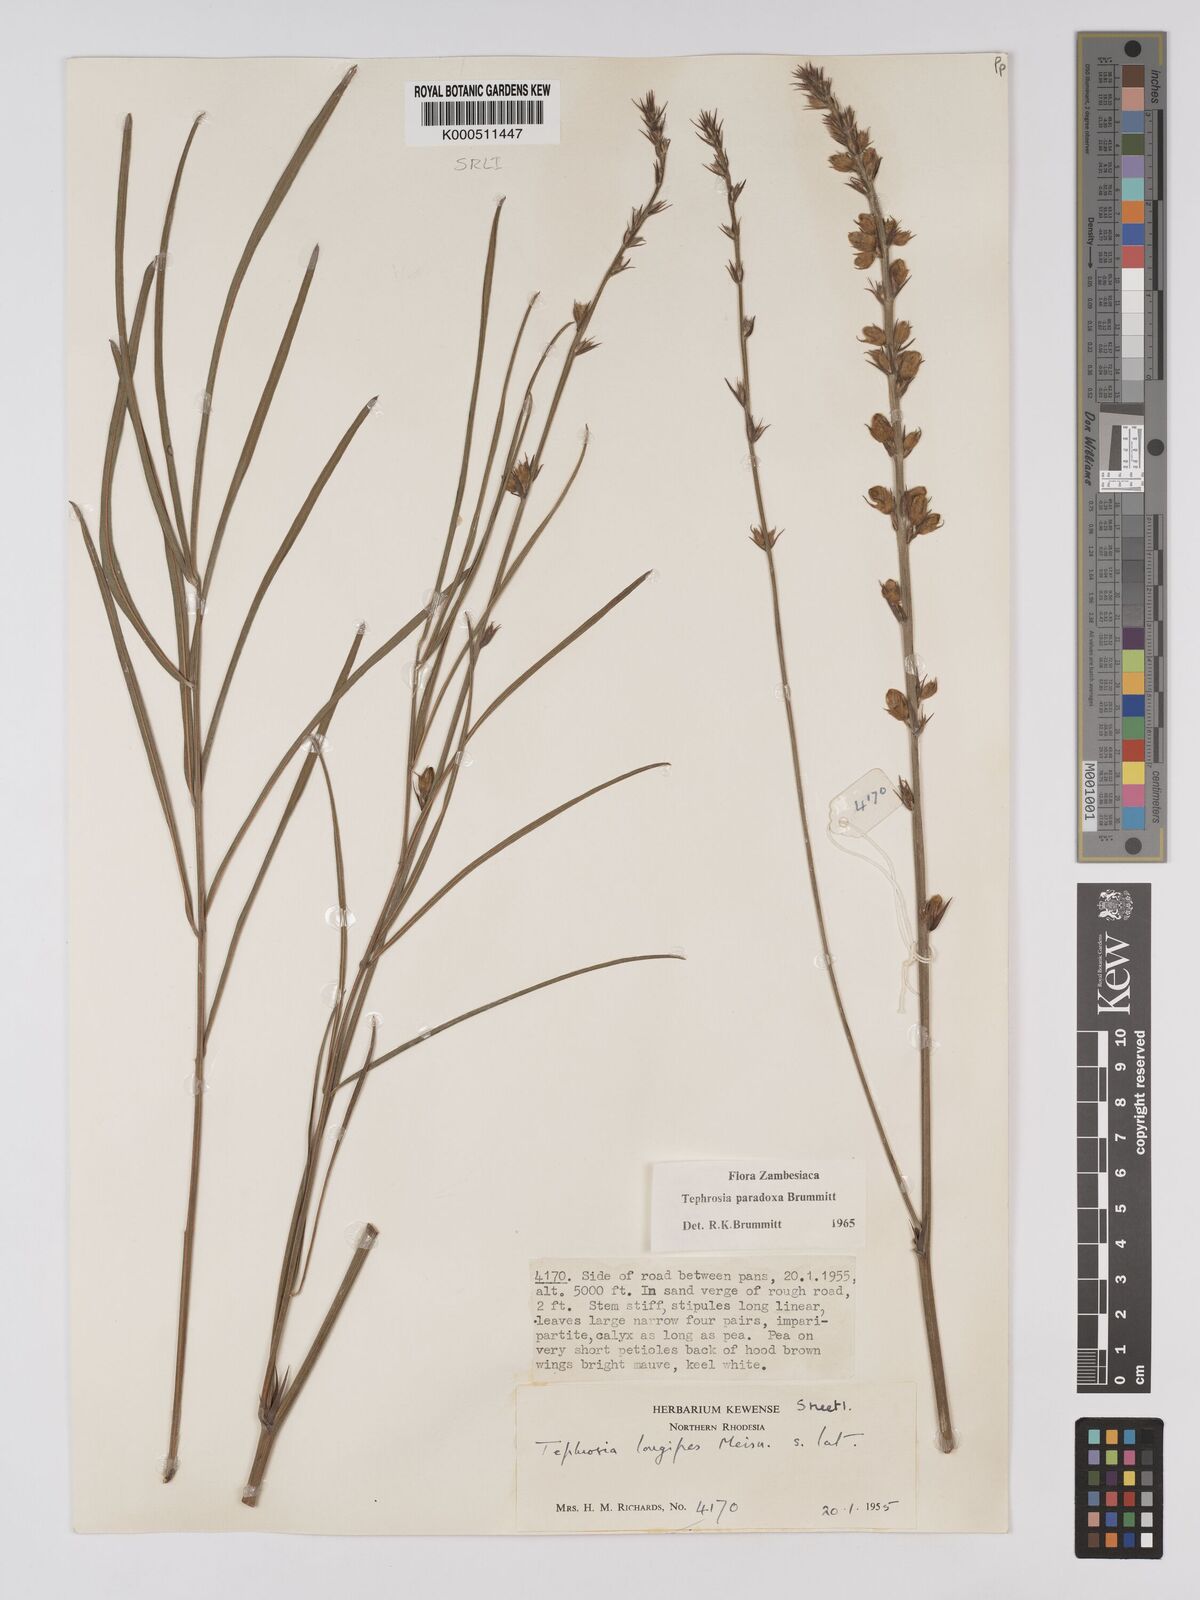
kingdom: Plantae
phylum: Tracheophyta
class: Magnoliopsida
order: Fabales
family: Fabaceae
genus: Tephrosia
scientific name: Tephrosia paradoxa
